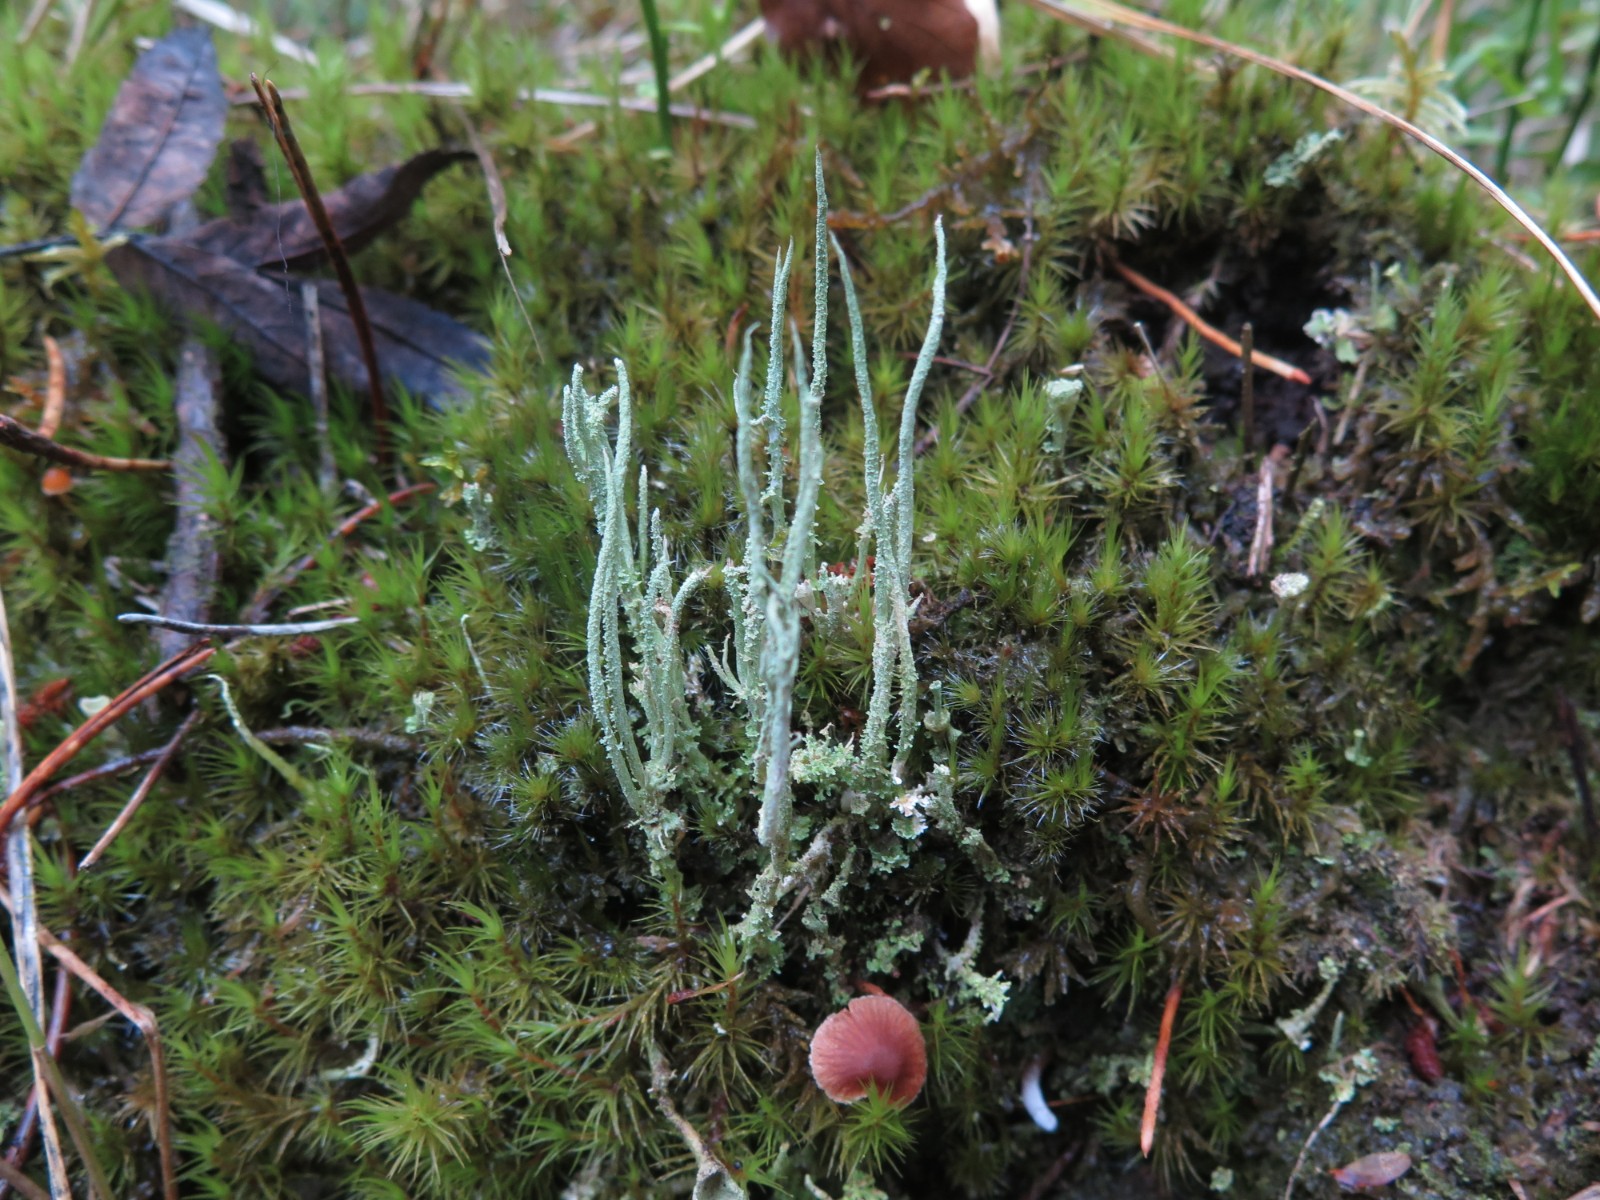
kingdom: Fungi
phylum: Ascomycota
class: Lecanoromycetes
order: Lecanorales
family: Cladoniaceae
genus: Cladonia
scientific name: Cladonia glauca
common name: grågrøn bægerlav
